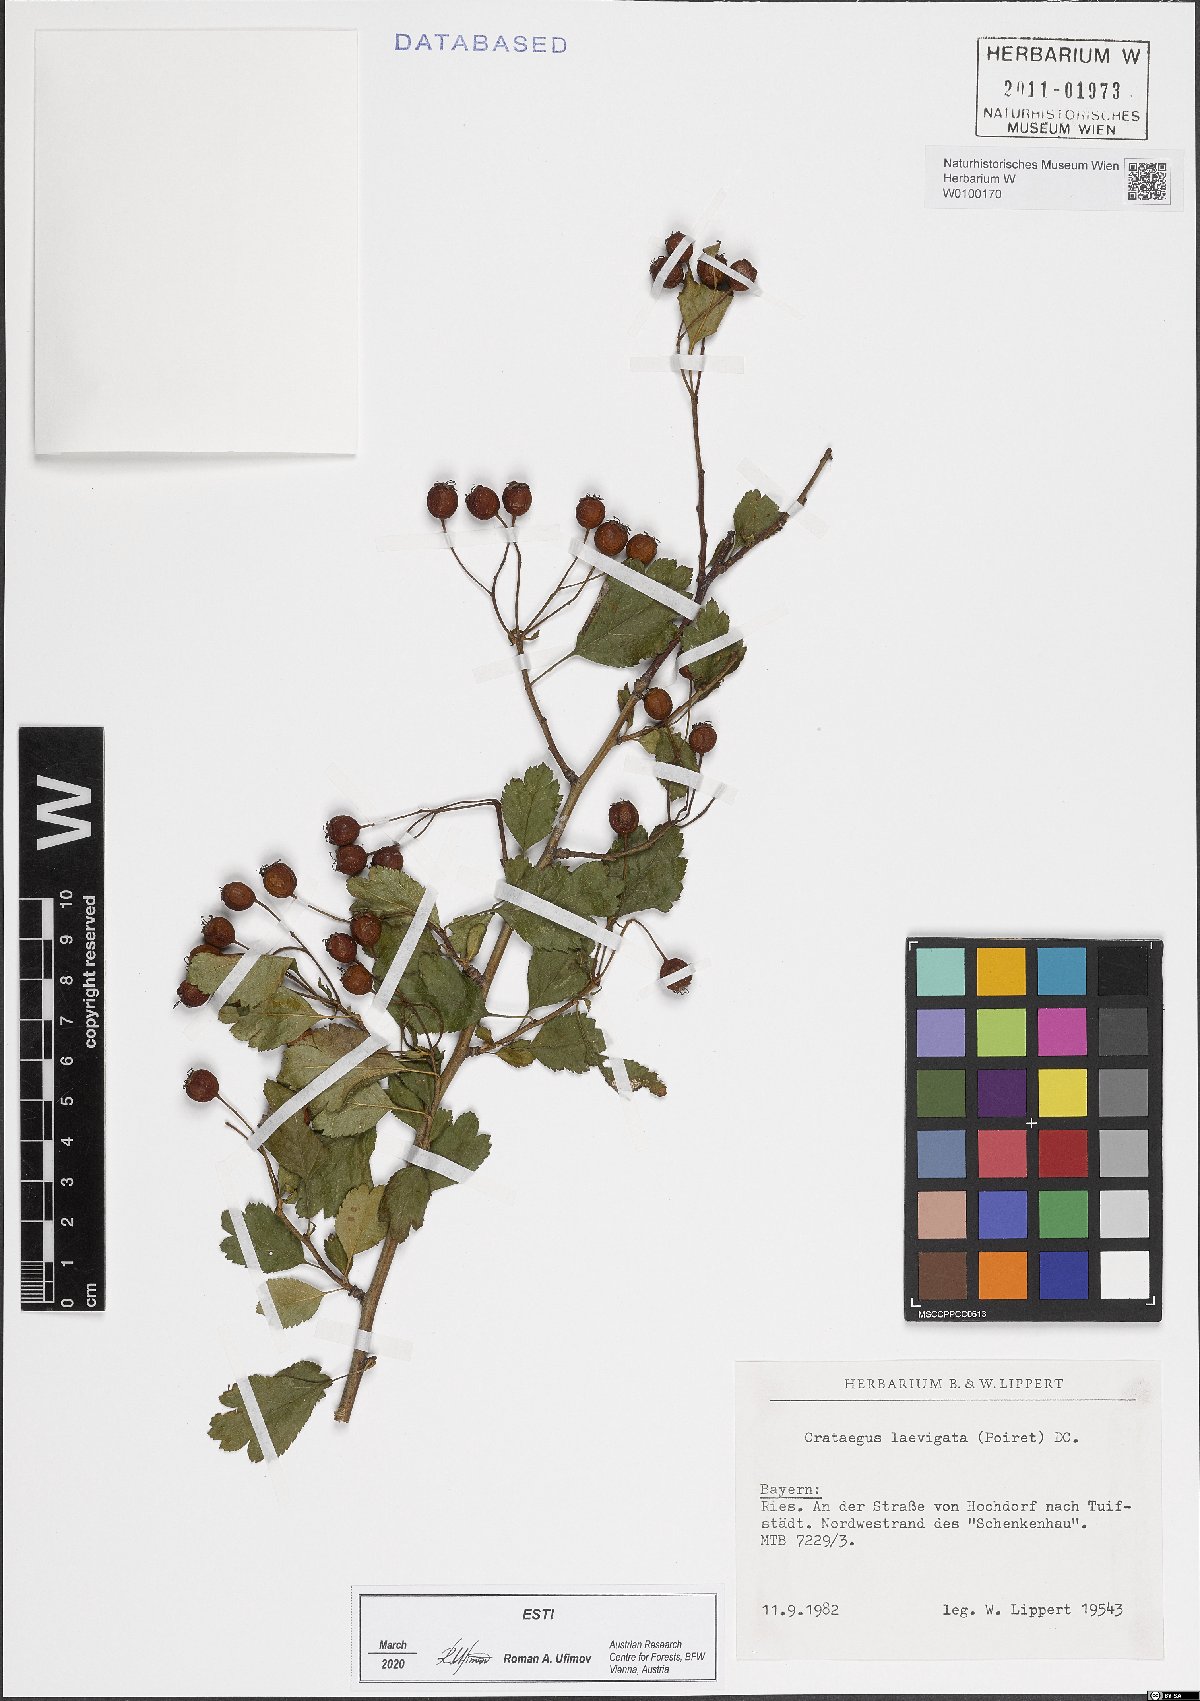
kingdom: Plantae
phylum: Tracheophyta
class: Magnoliopsida
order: Rosales
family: Rosaceae
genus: Crataegus
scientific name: Crataegus laevigata
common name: Midland hawthorn
